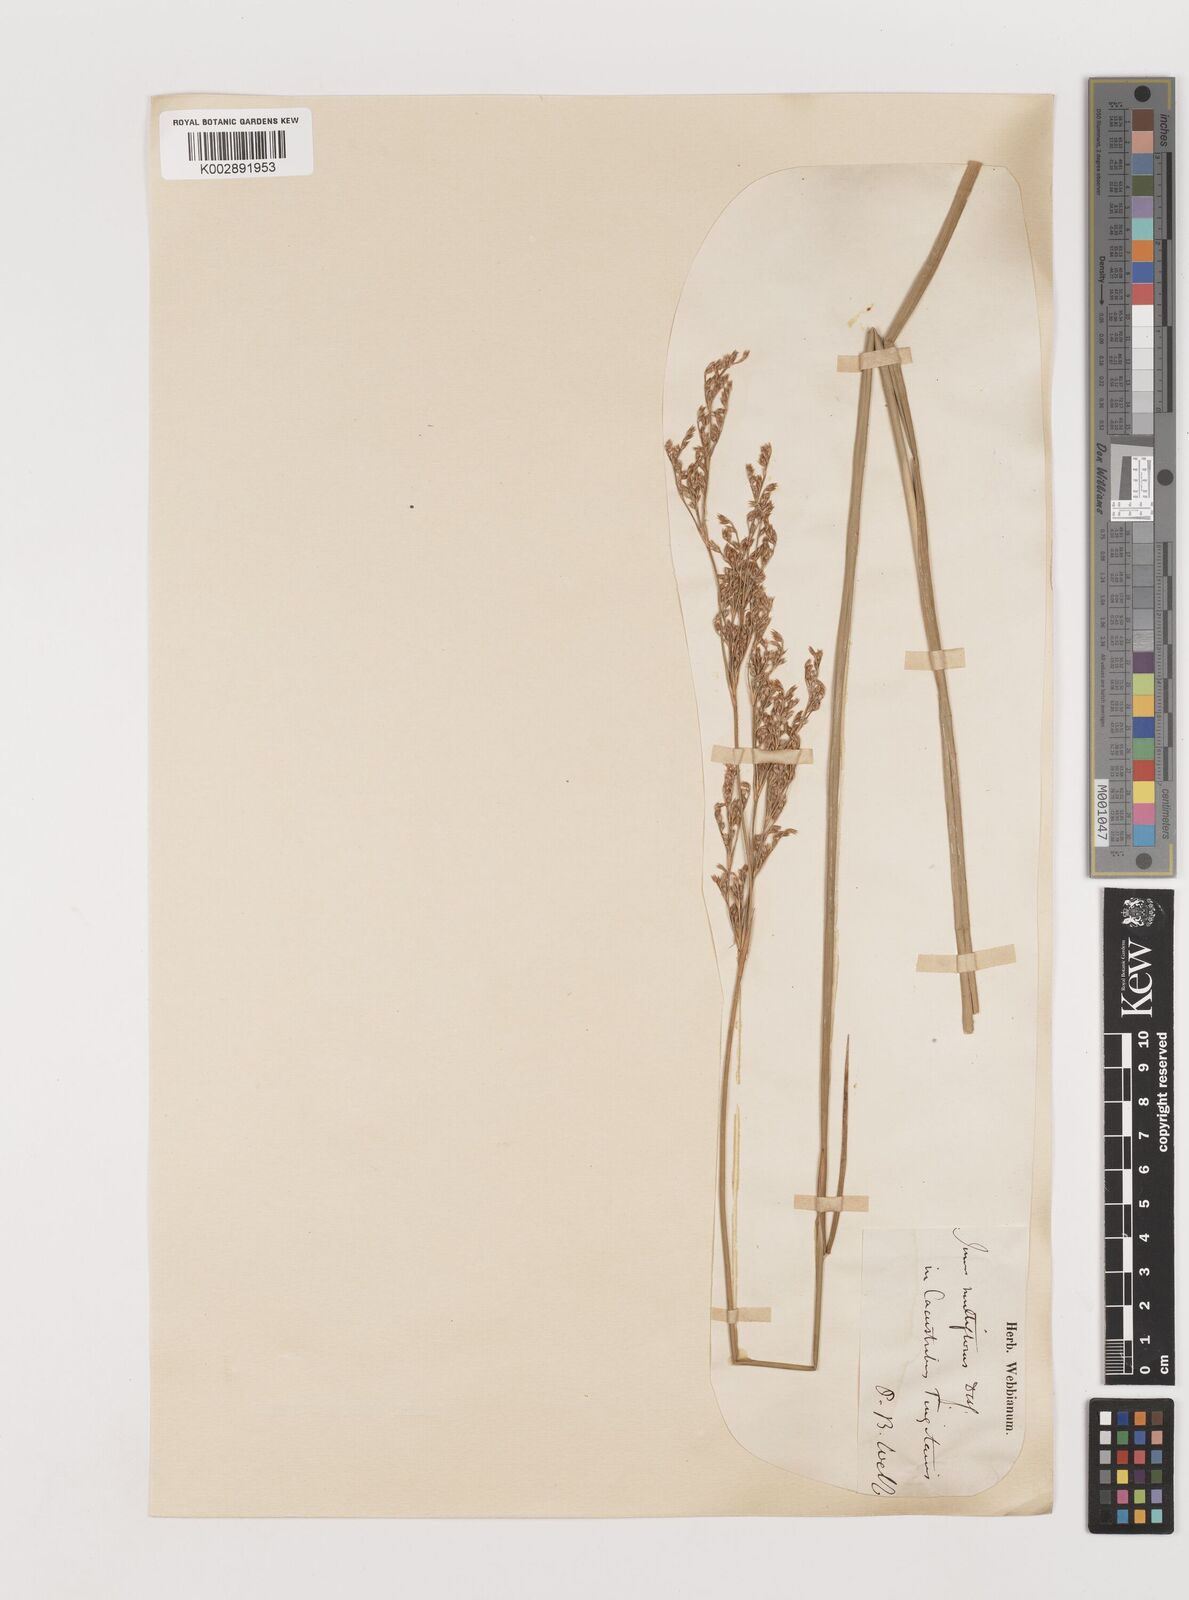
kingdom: Plantae
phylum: Tracheophyta
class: Liliopsida
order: Poales
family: Juncaceae
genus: Juncus
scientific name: Juncus subulatus
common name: Somerset rush
